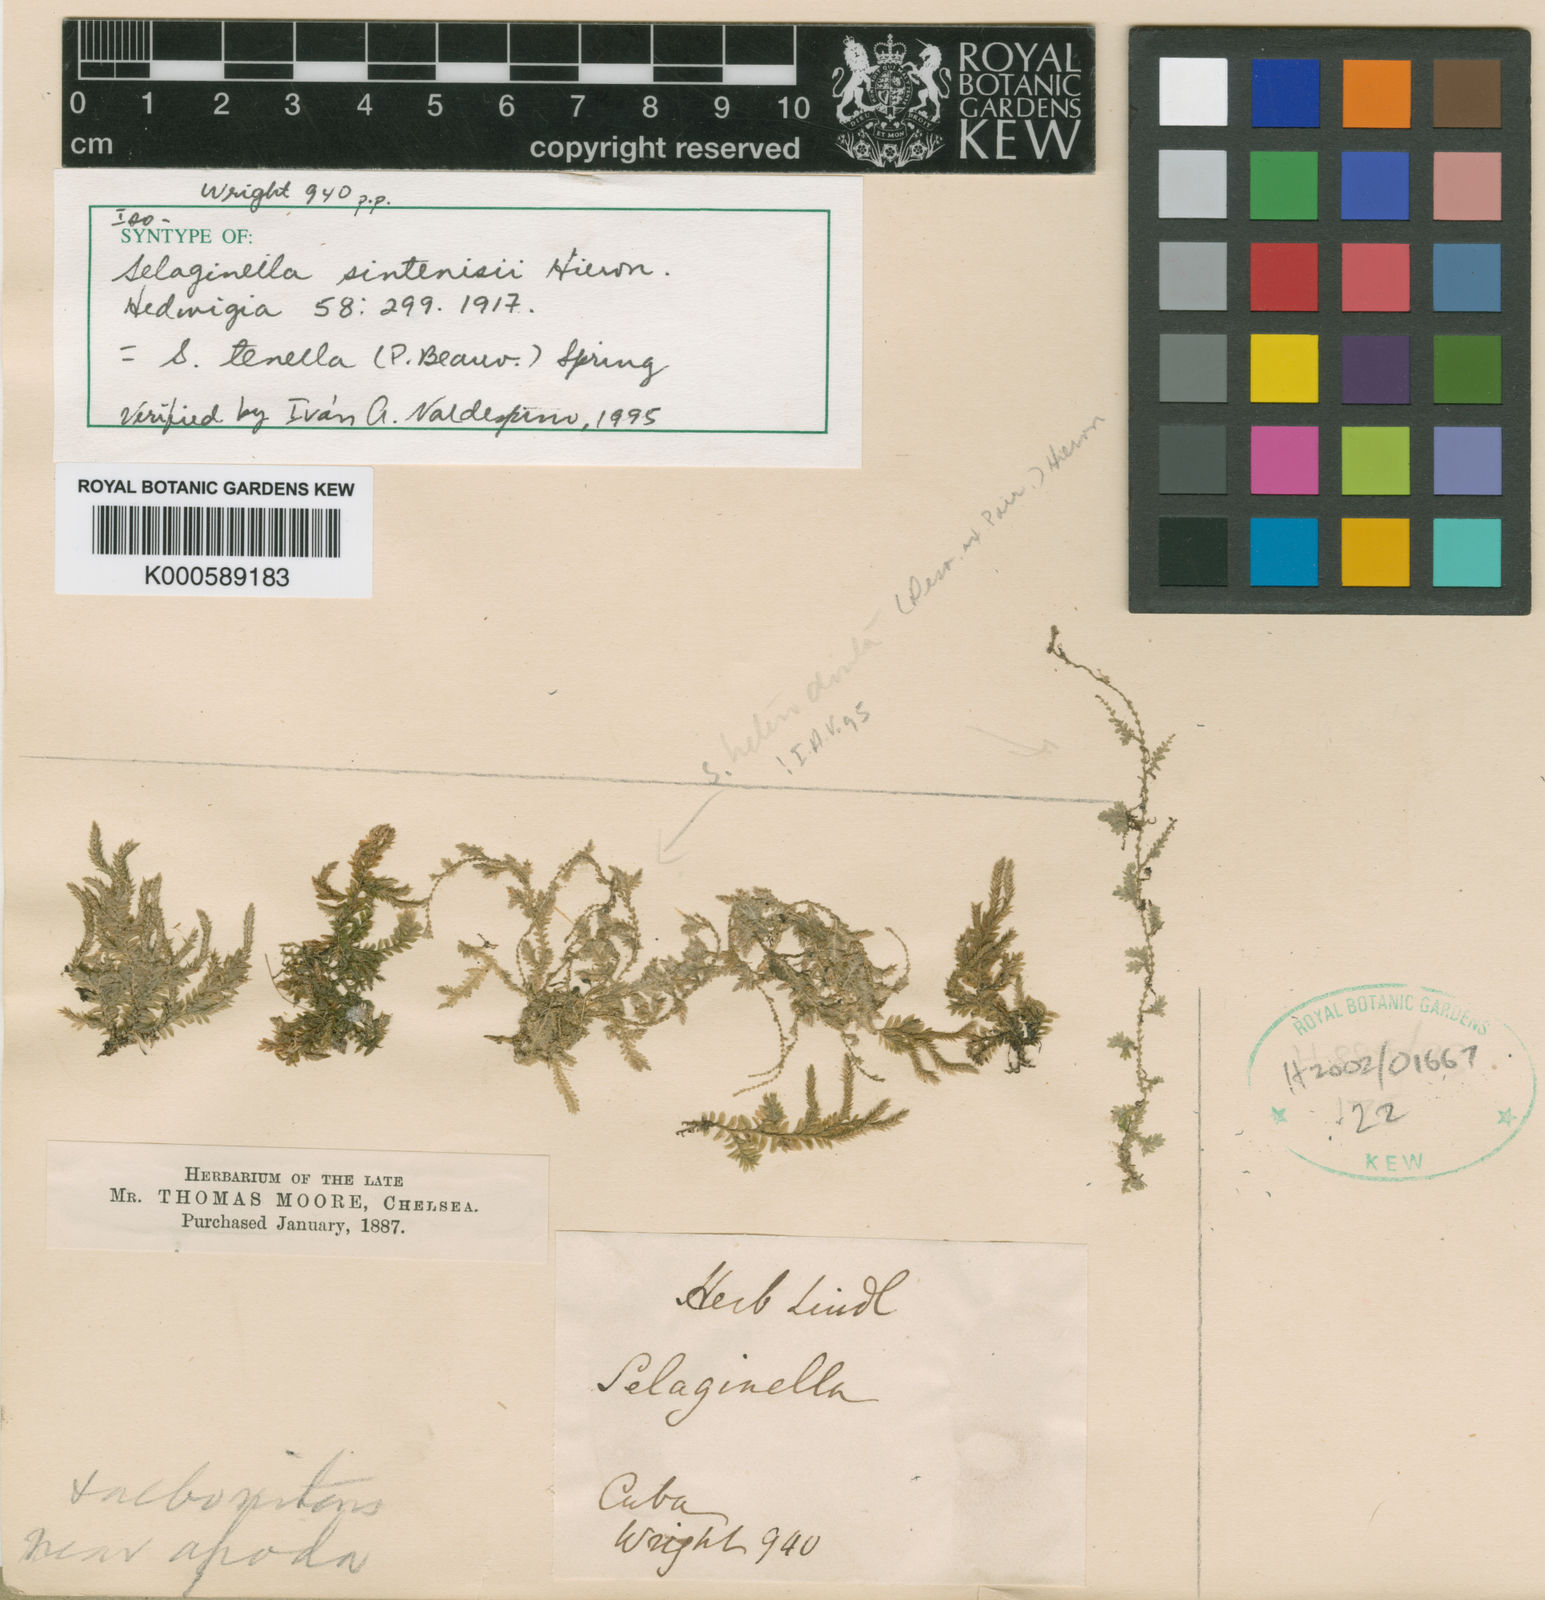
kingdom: Plantae
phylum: Tracheophyta
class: Lycopodiopsida
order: Selaginellales
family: Selaginellaceae
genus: Selaginella
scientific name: Selaginella tenella
